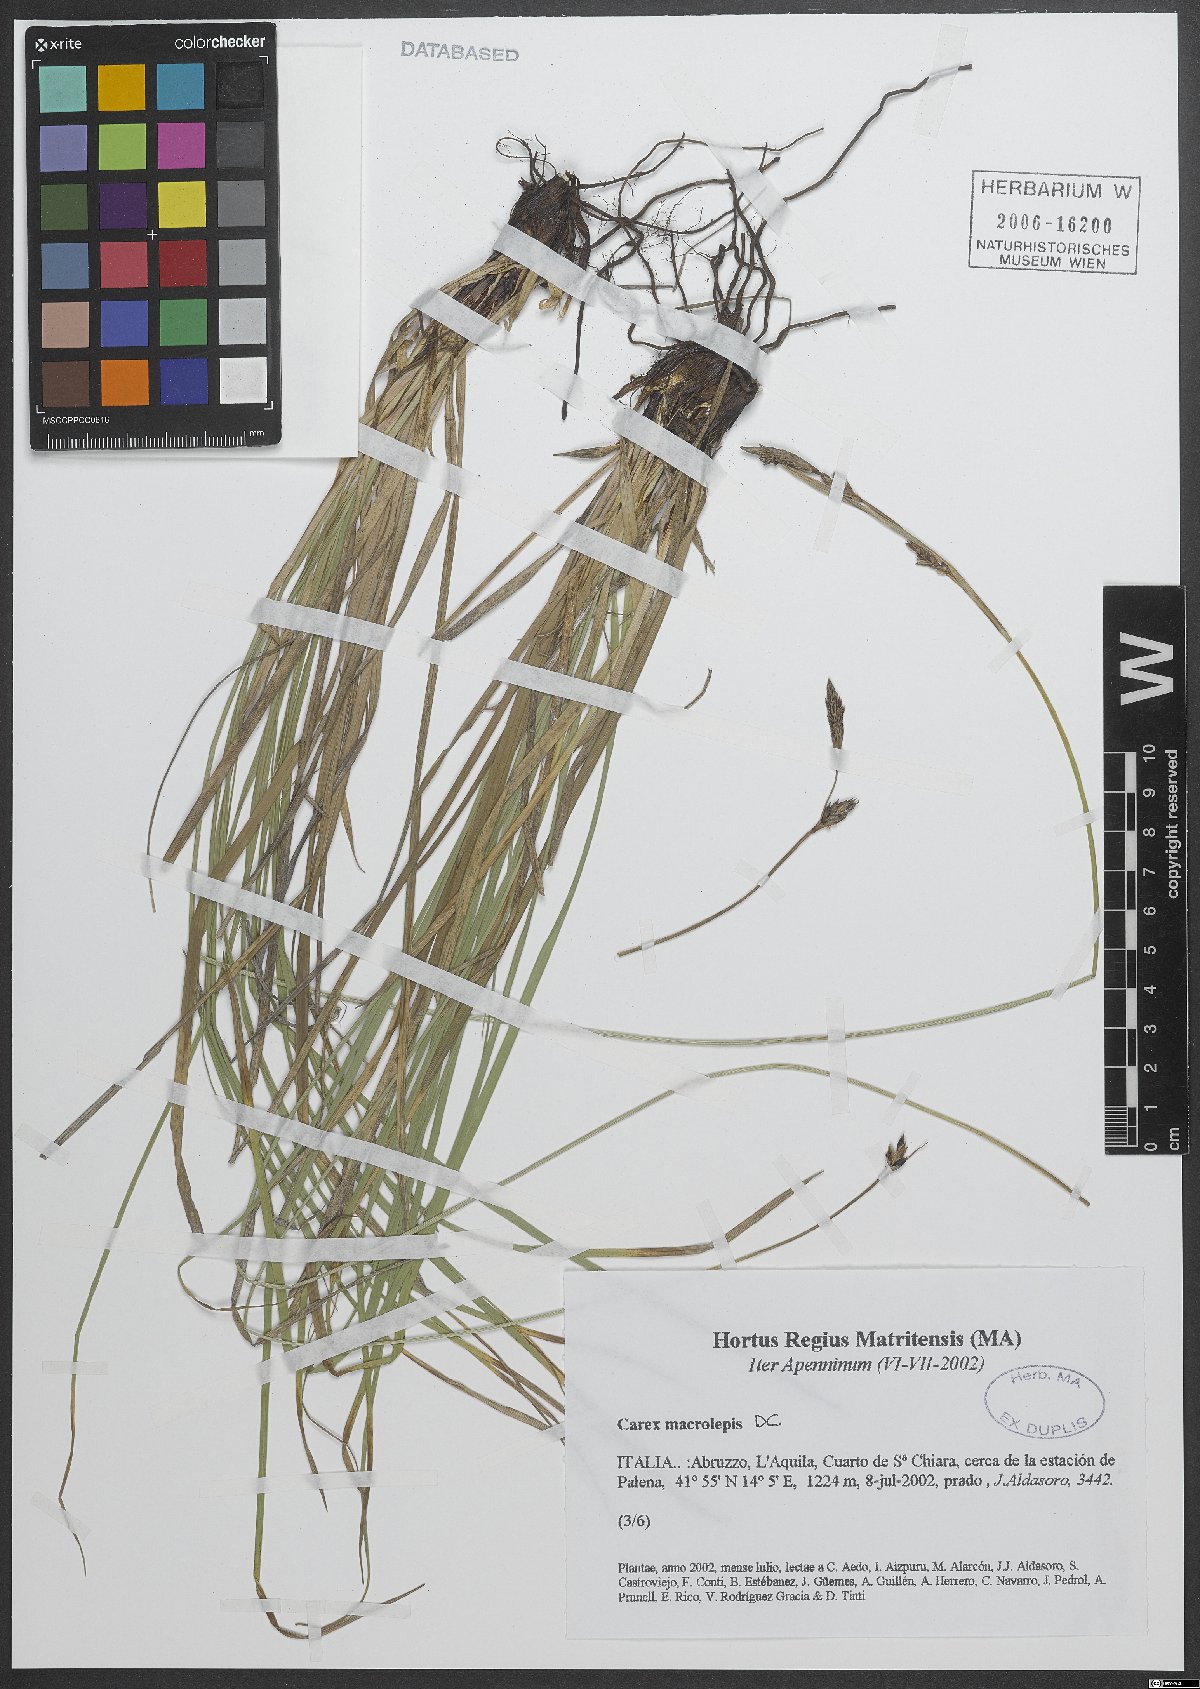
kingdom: Plantae
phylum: Tracheophyta
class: Liliopsida
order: Poales
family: Cyperaceae
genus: Carex
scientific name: Carex macrolepis
